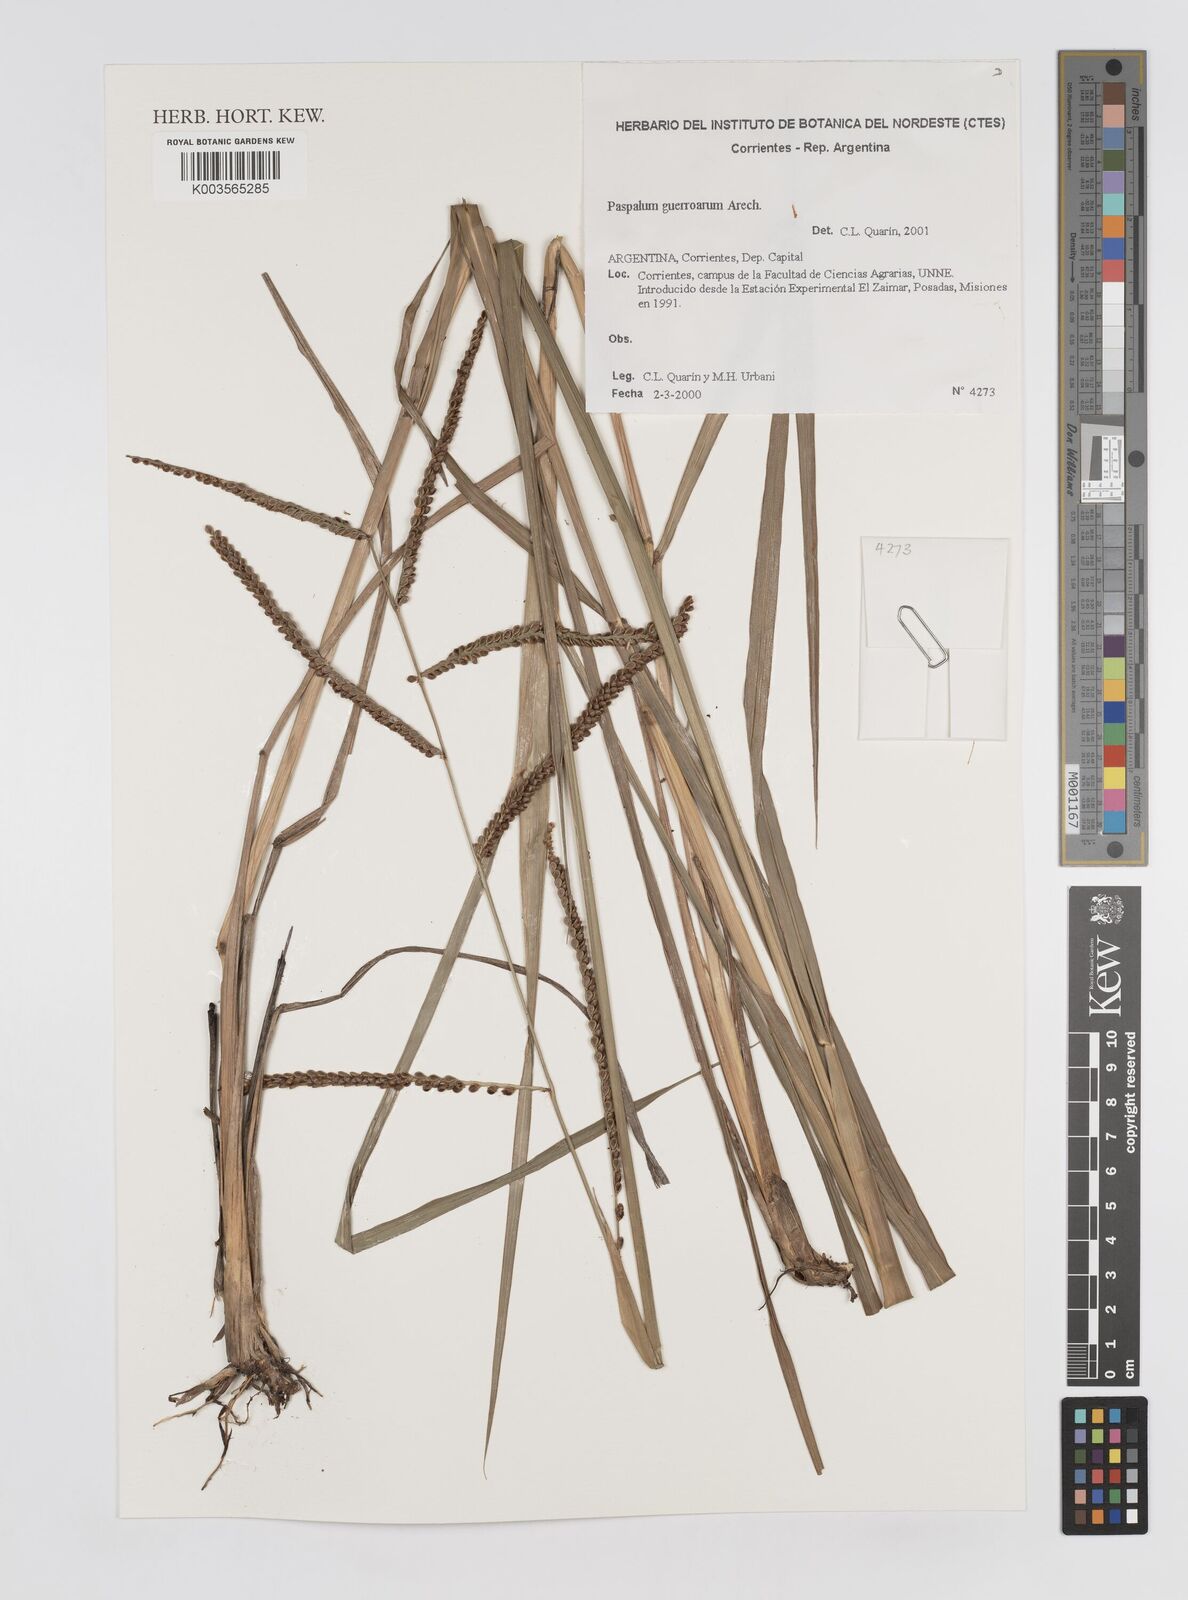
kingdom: Plantae
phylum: Tracheophyta
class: Liliopsida
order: Poales
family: Poaceae
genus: Paspalum
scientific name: Paspalum guenoarum
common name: Wintergreen paspalum
